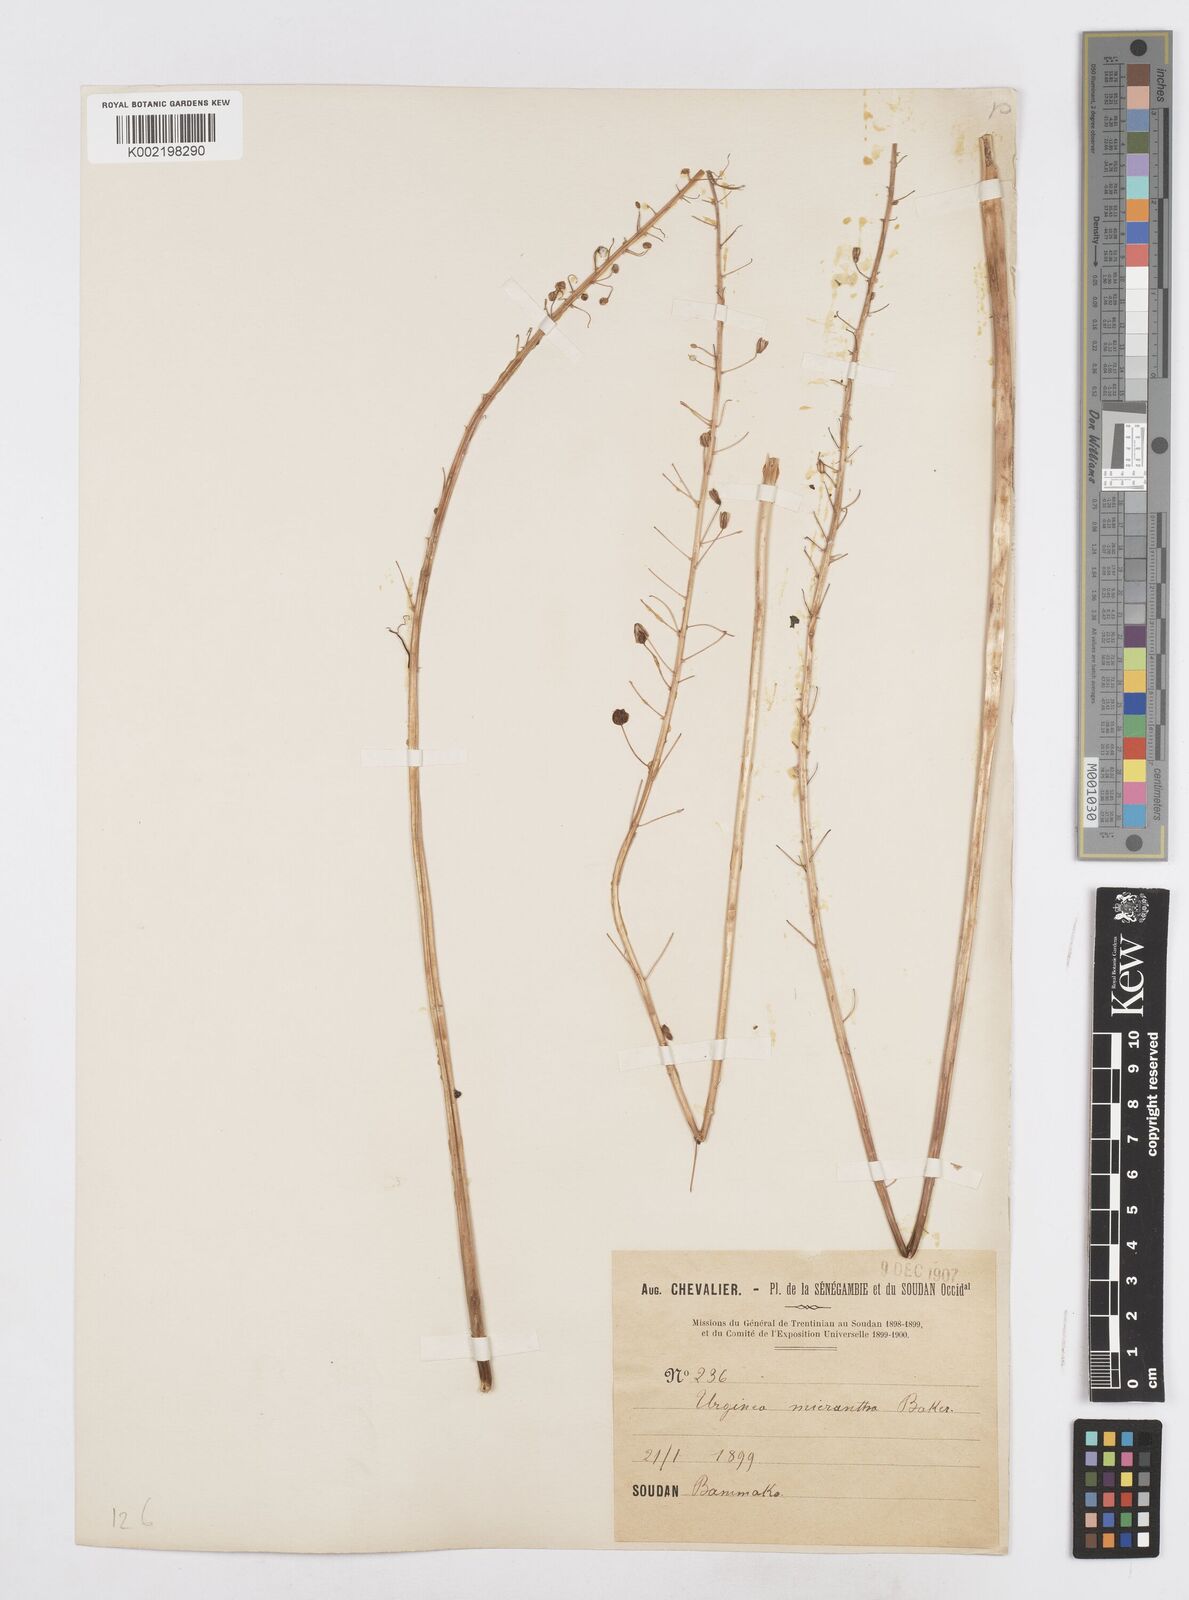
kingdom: Plantae
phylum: Tracheophyta
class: Liliopsida
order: Asparagales
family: Asparagaceae
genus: Drimia
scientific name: Drimia altissima
